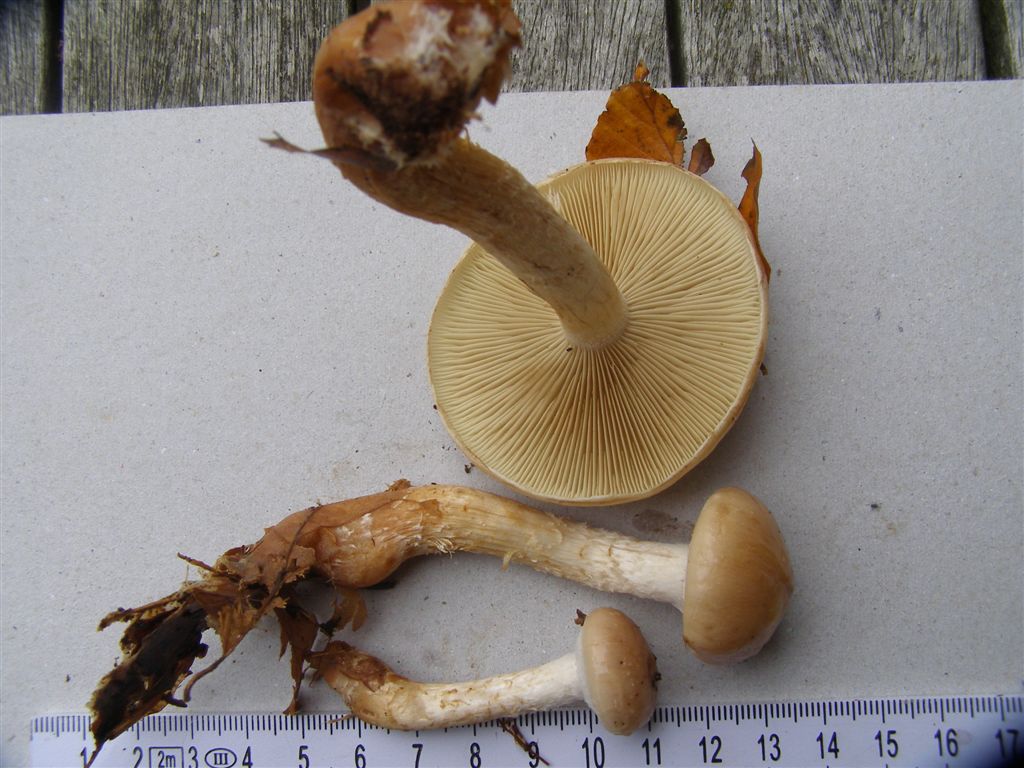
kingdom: Fungi
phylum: Basidiomycota
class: Agaricomycetes
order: Agaricales
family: Strophariaceae
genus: Pholiota
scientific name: Pholiota lenta
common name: løv-skælhat
